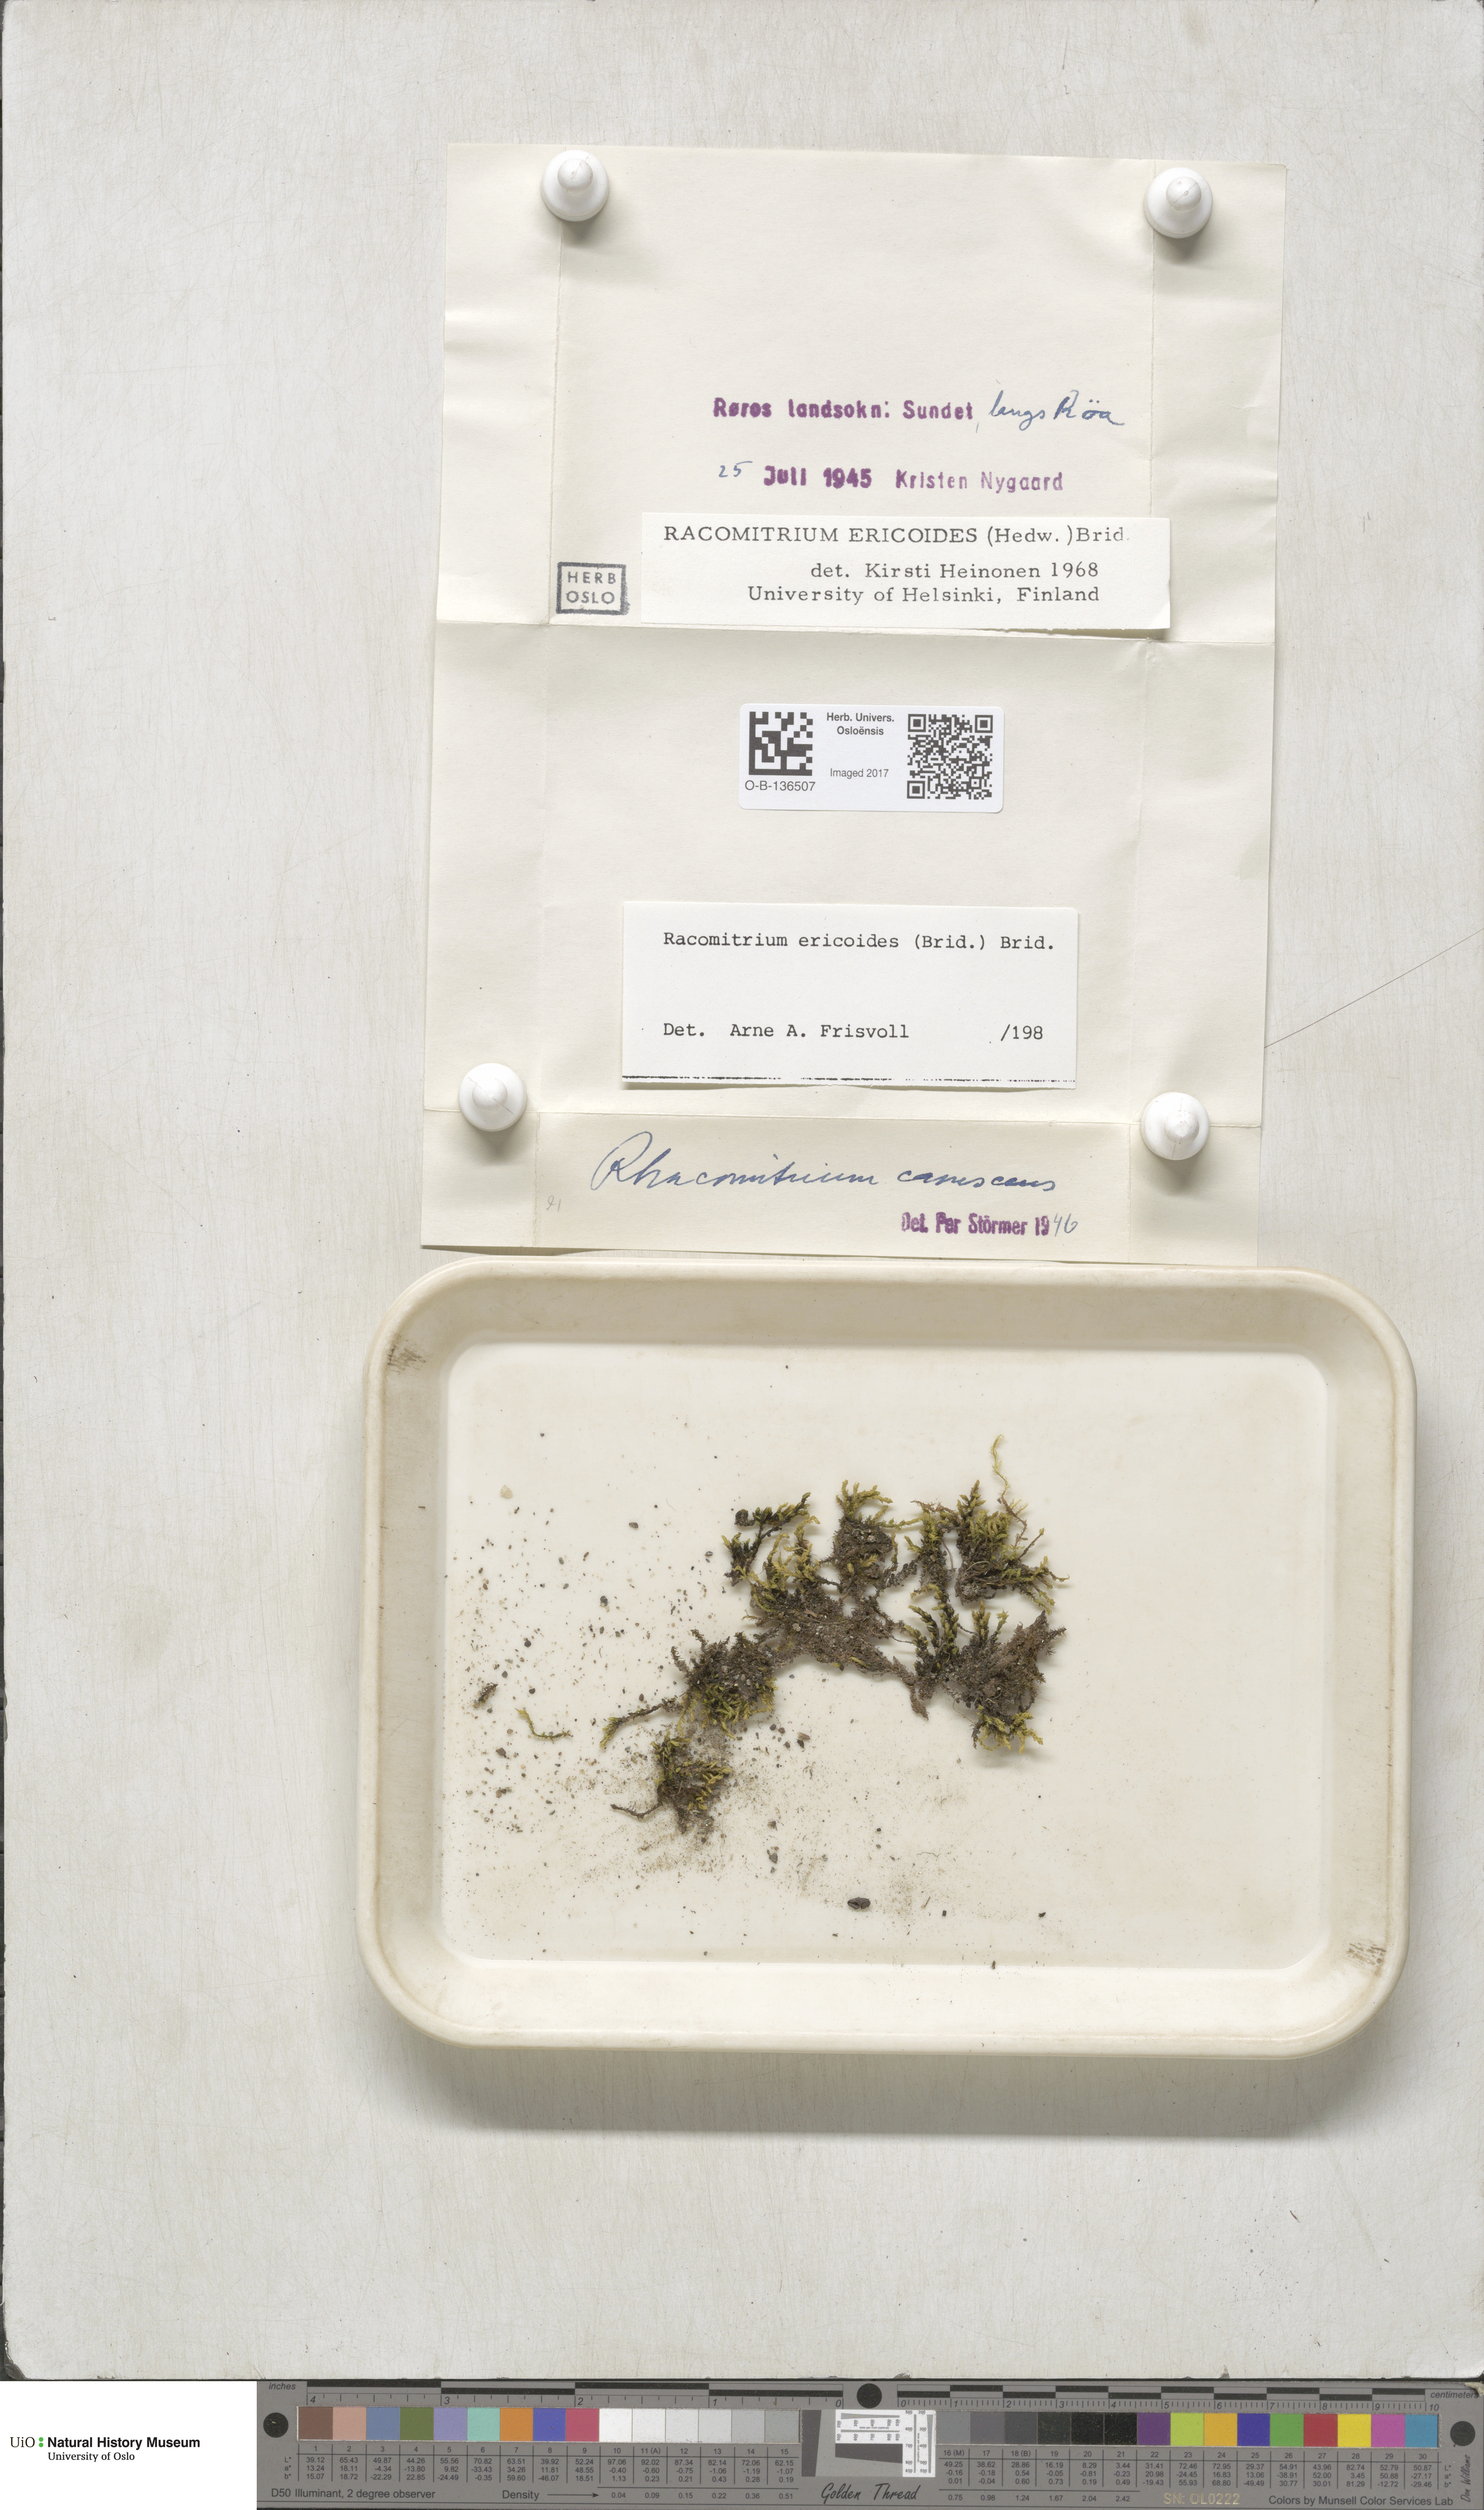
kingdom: Plantae
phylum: Bryophyta
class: Bryopsida
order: Grimmiales
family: Grimmiaceae
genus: Niphotrichum
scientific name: Niphotrichum ericoides
